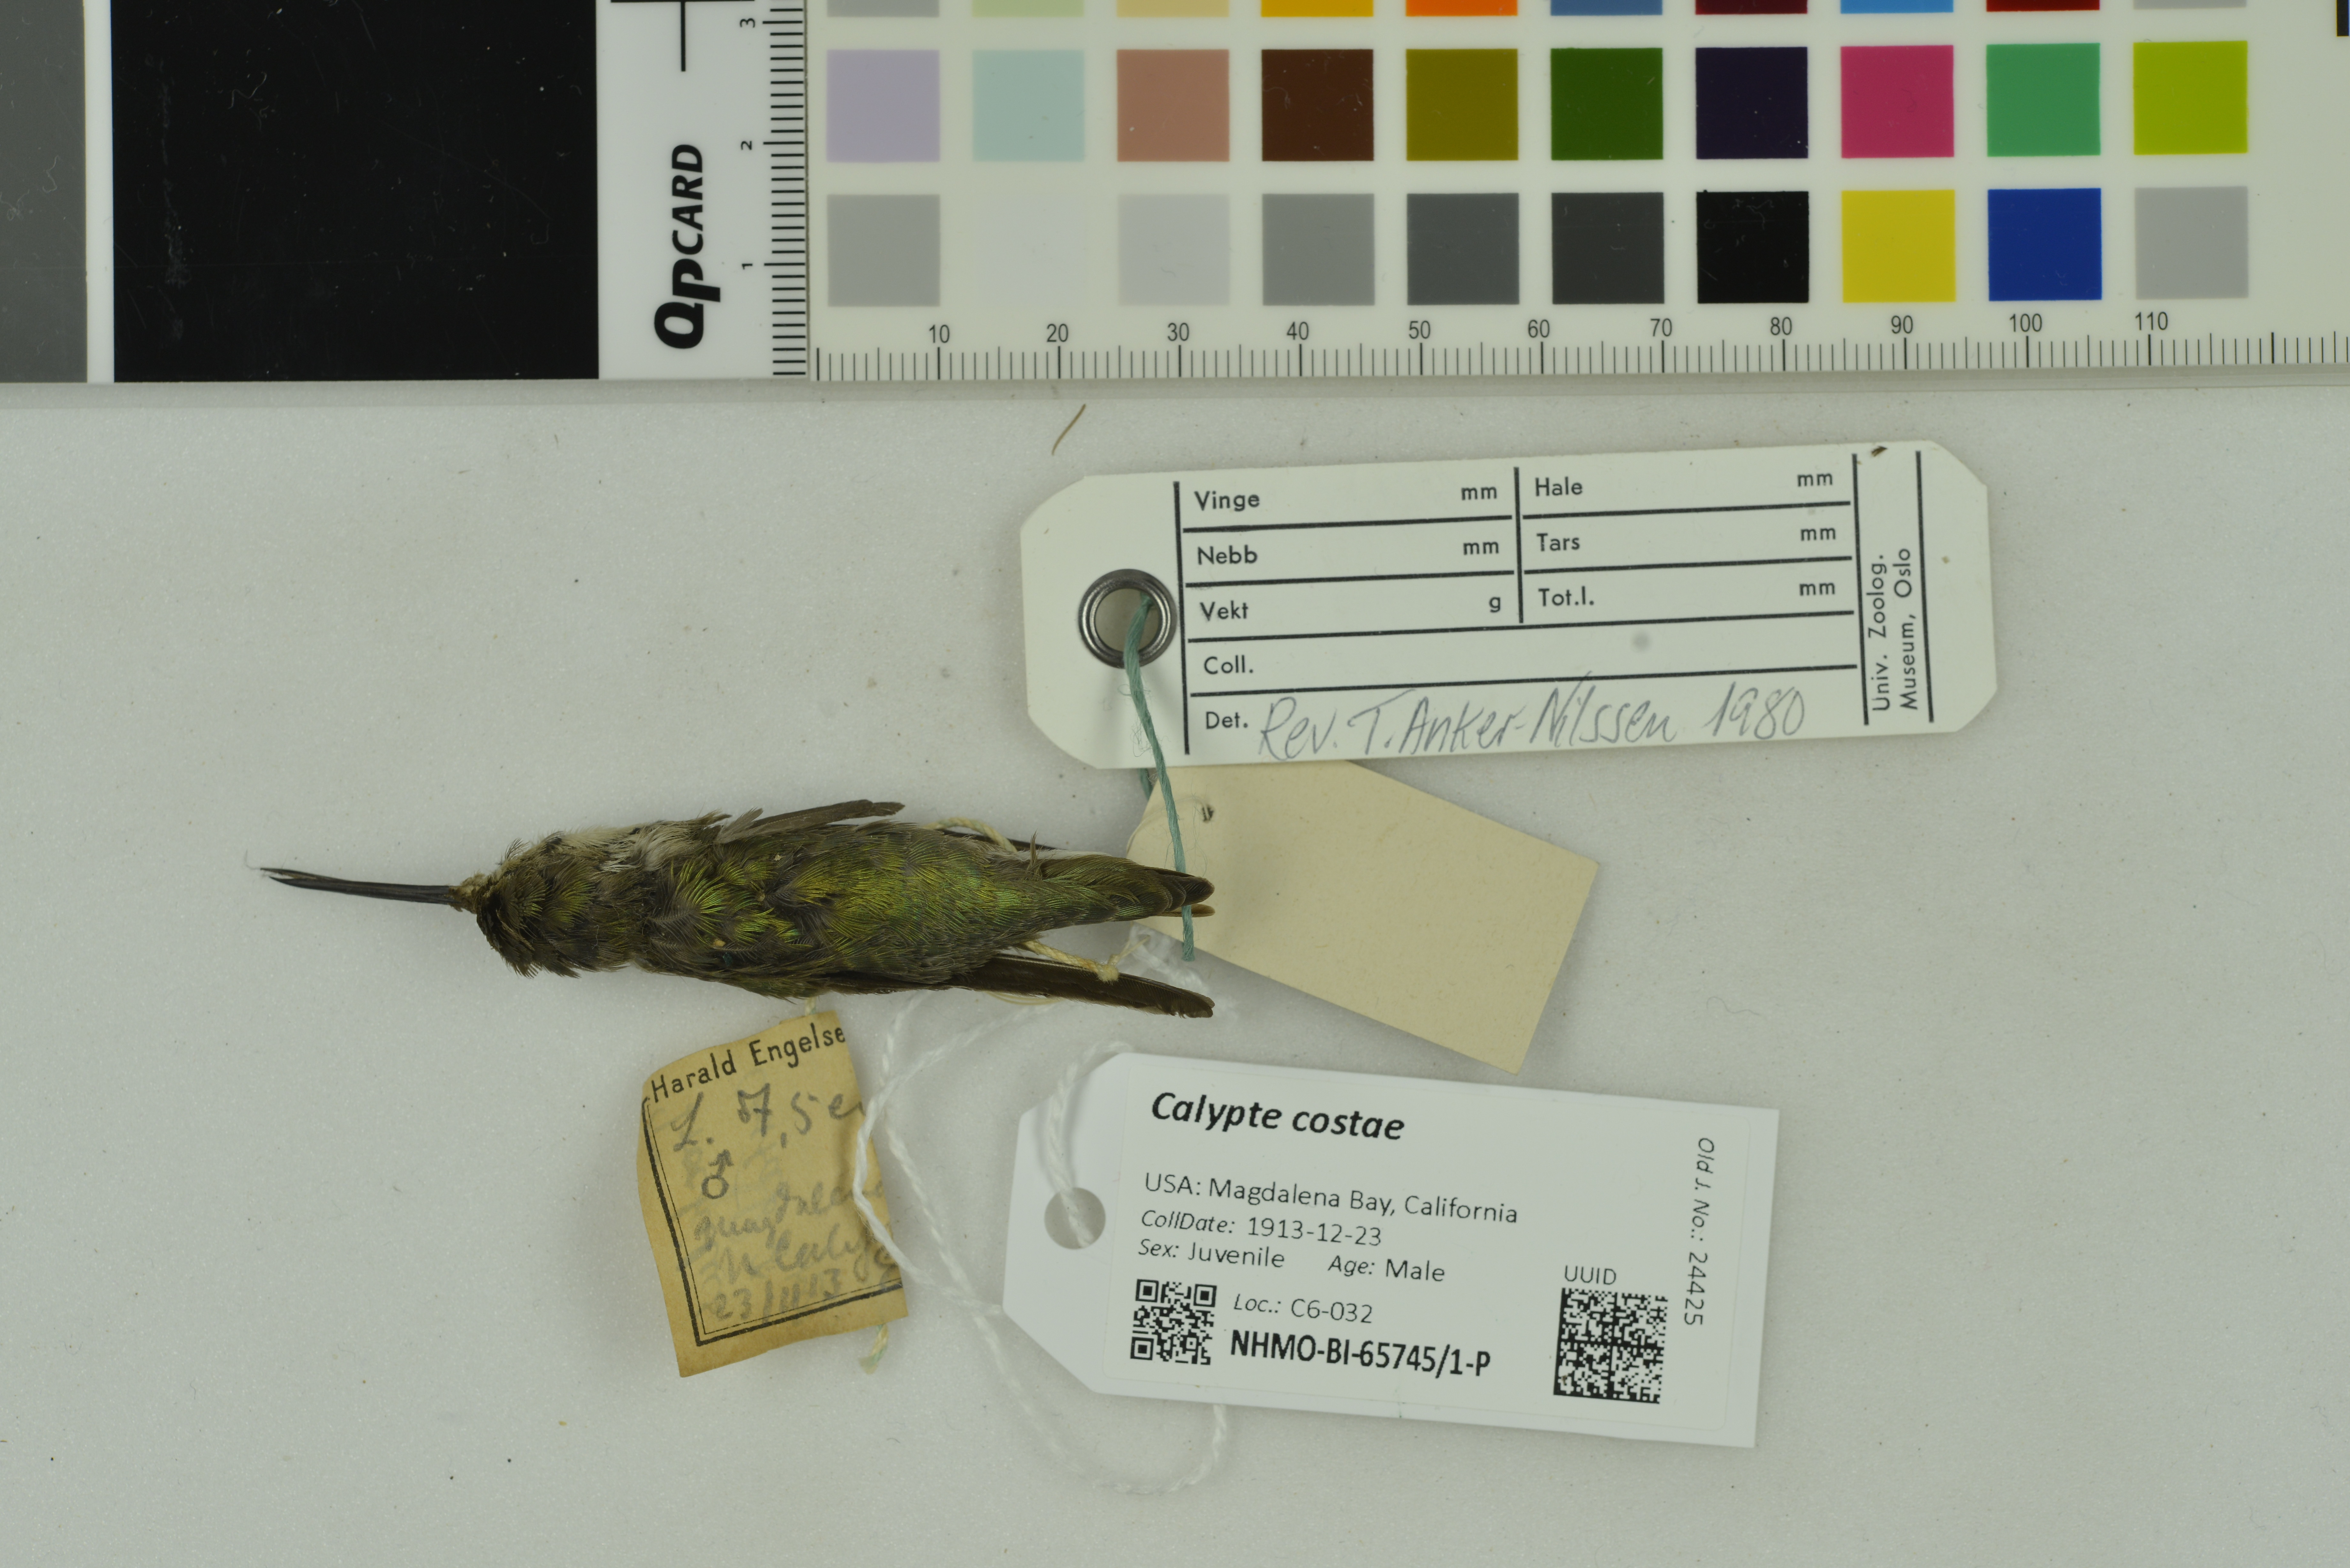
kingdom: Animalia
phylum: Chordata
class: Aves
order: Apodiformes
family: Trochilidae
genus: Calypte
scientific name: Calypte costae
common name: Costa's hummingbird
